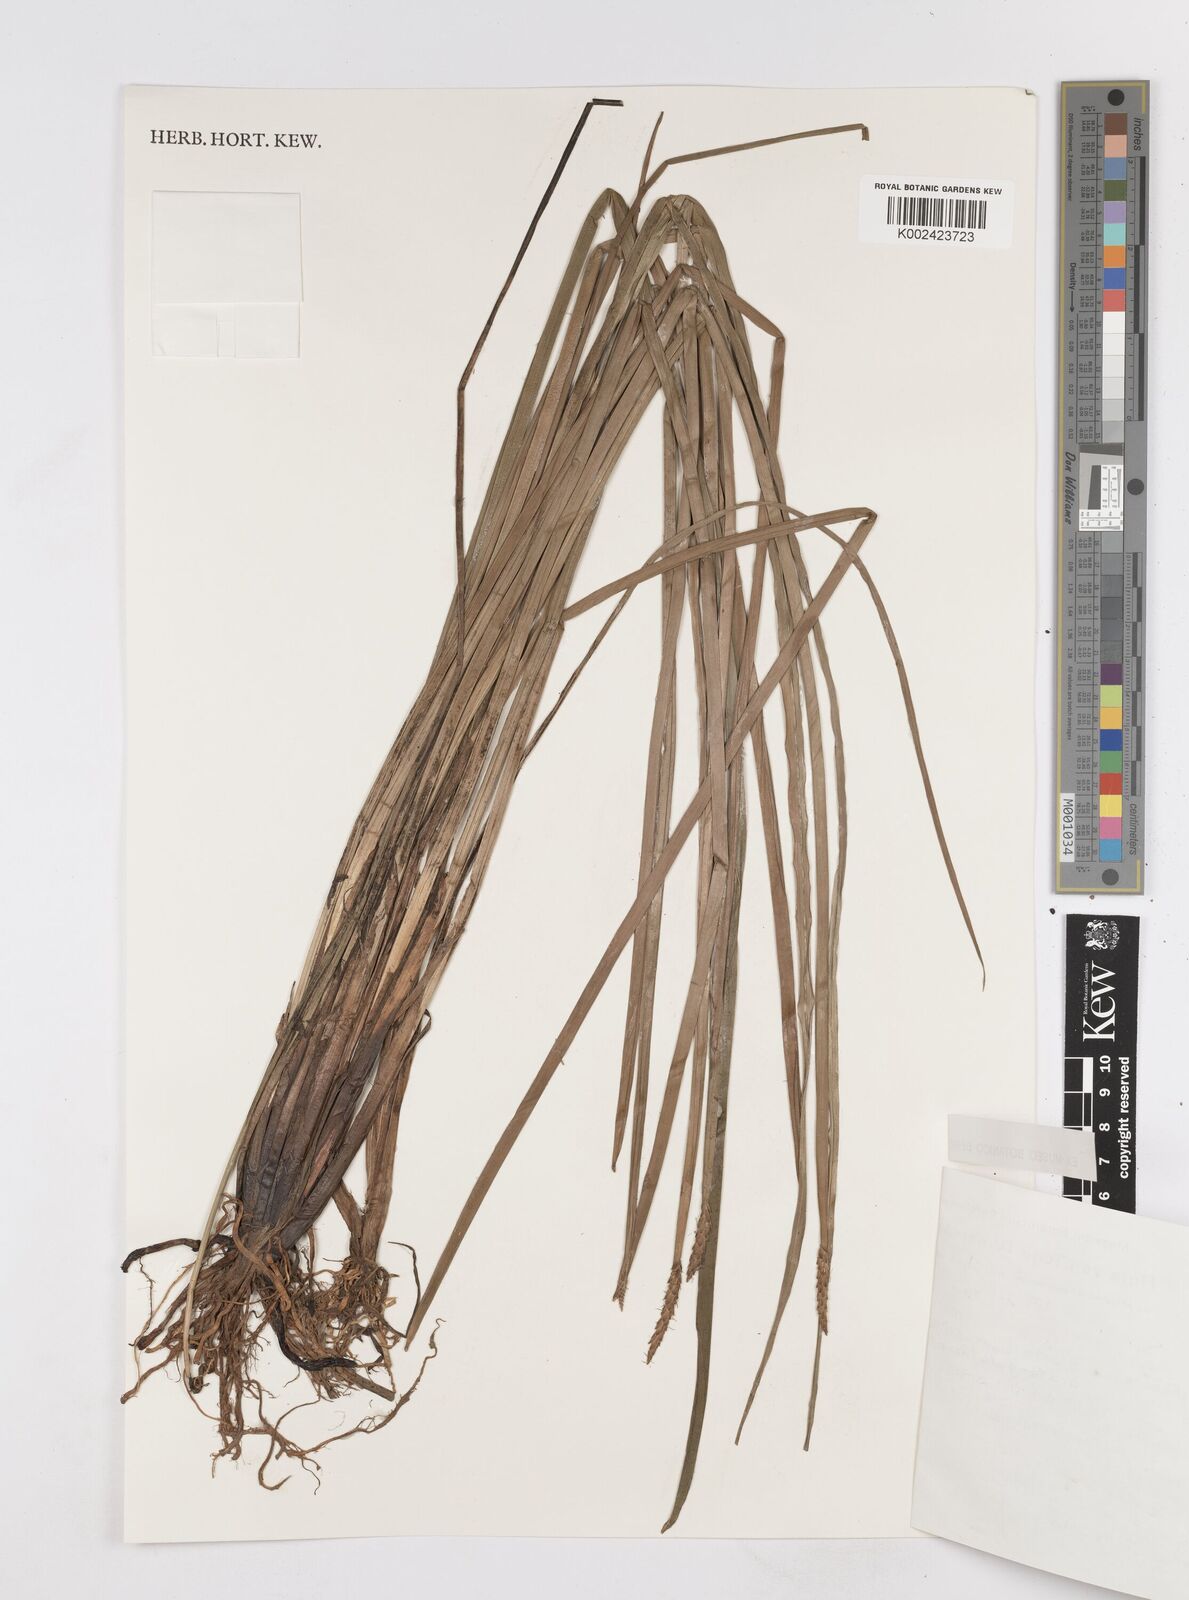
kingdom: Plantae
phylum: Tracheophyta
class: Liliopsida
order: Poales
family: Cyperaceae
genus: Eleocharis
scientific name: Eleocharis acutangula
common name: Acute spikerush
